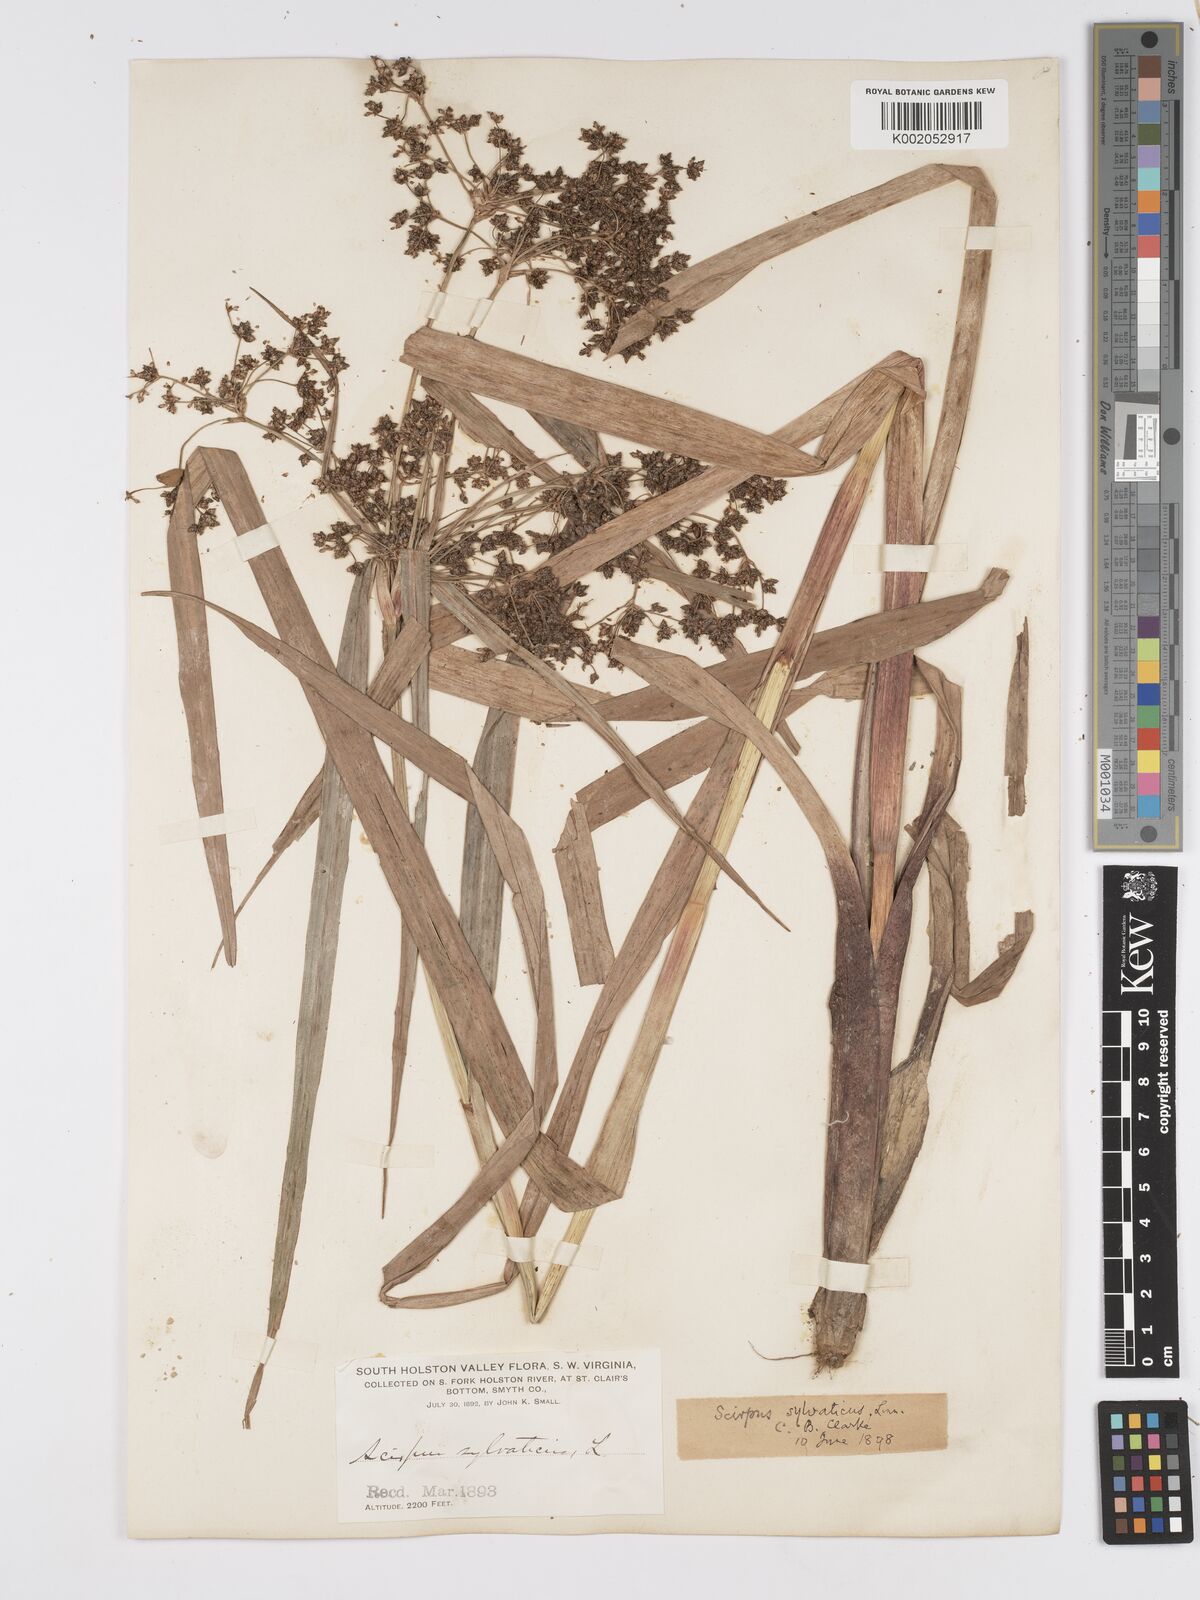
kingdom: Plantae
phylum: Tracheophyta
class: Liliopsida
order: Poales
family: Cyperaceae
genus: Scirpus
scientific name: Scirpus sylvaticus
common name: Wood club-rush
